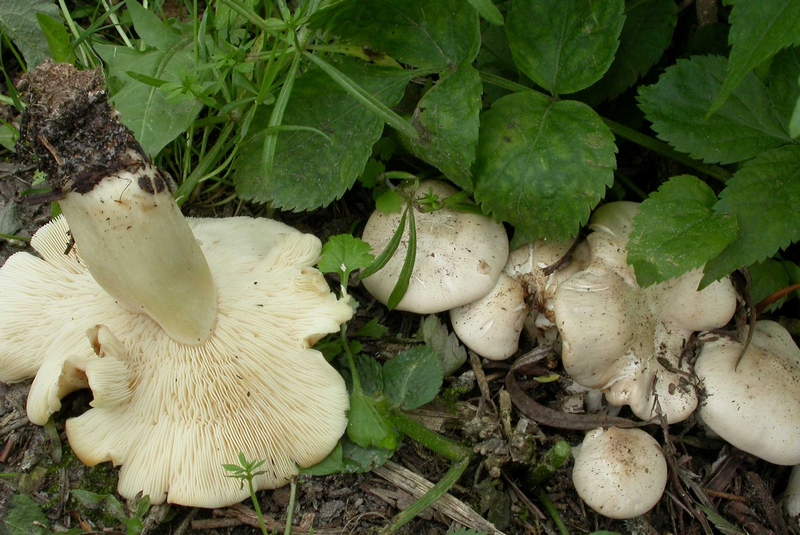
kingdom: Fungi
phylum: Basidiomycota
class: Agaricomycetes
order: Agaricales
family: Lyophyllaceae
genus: Calocybe
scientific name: Calocybe gambosa
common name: vårmusseron
